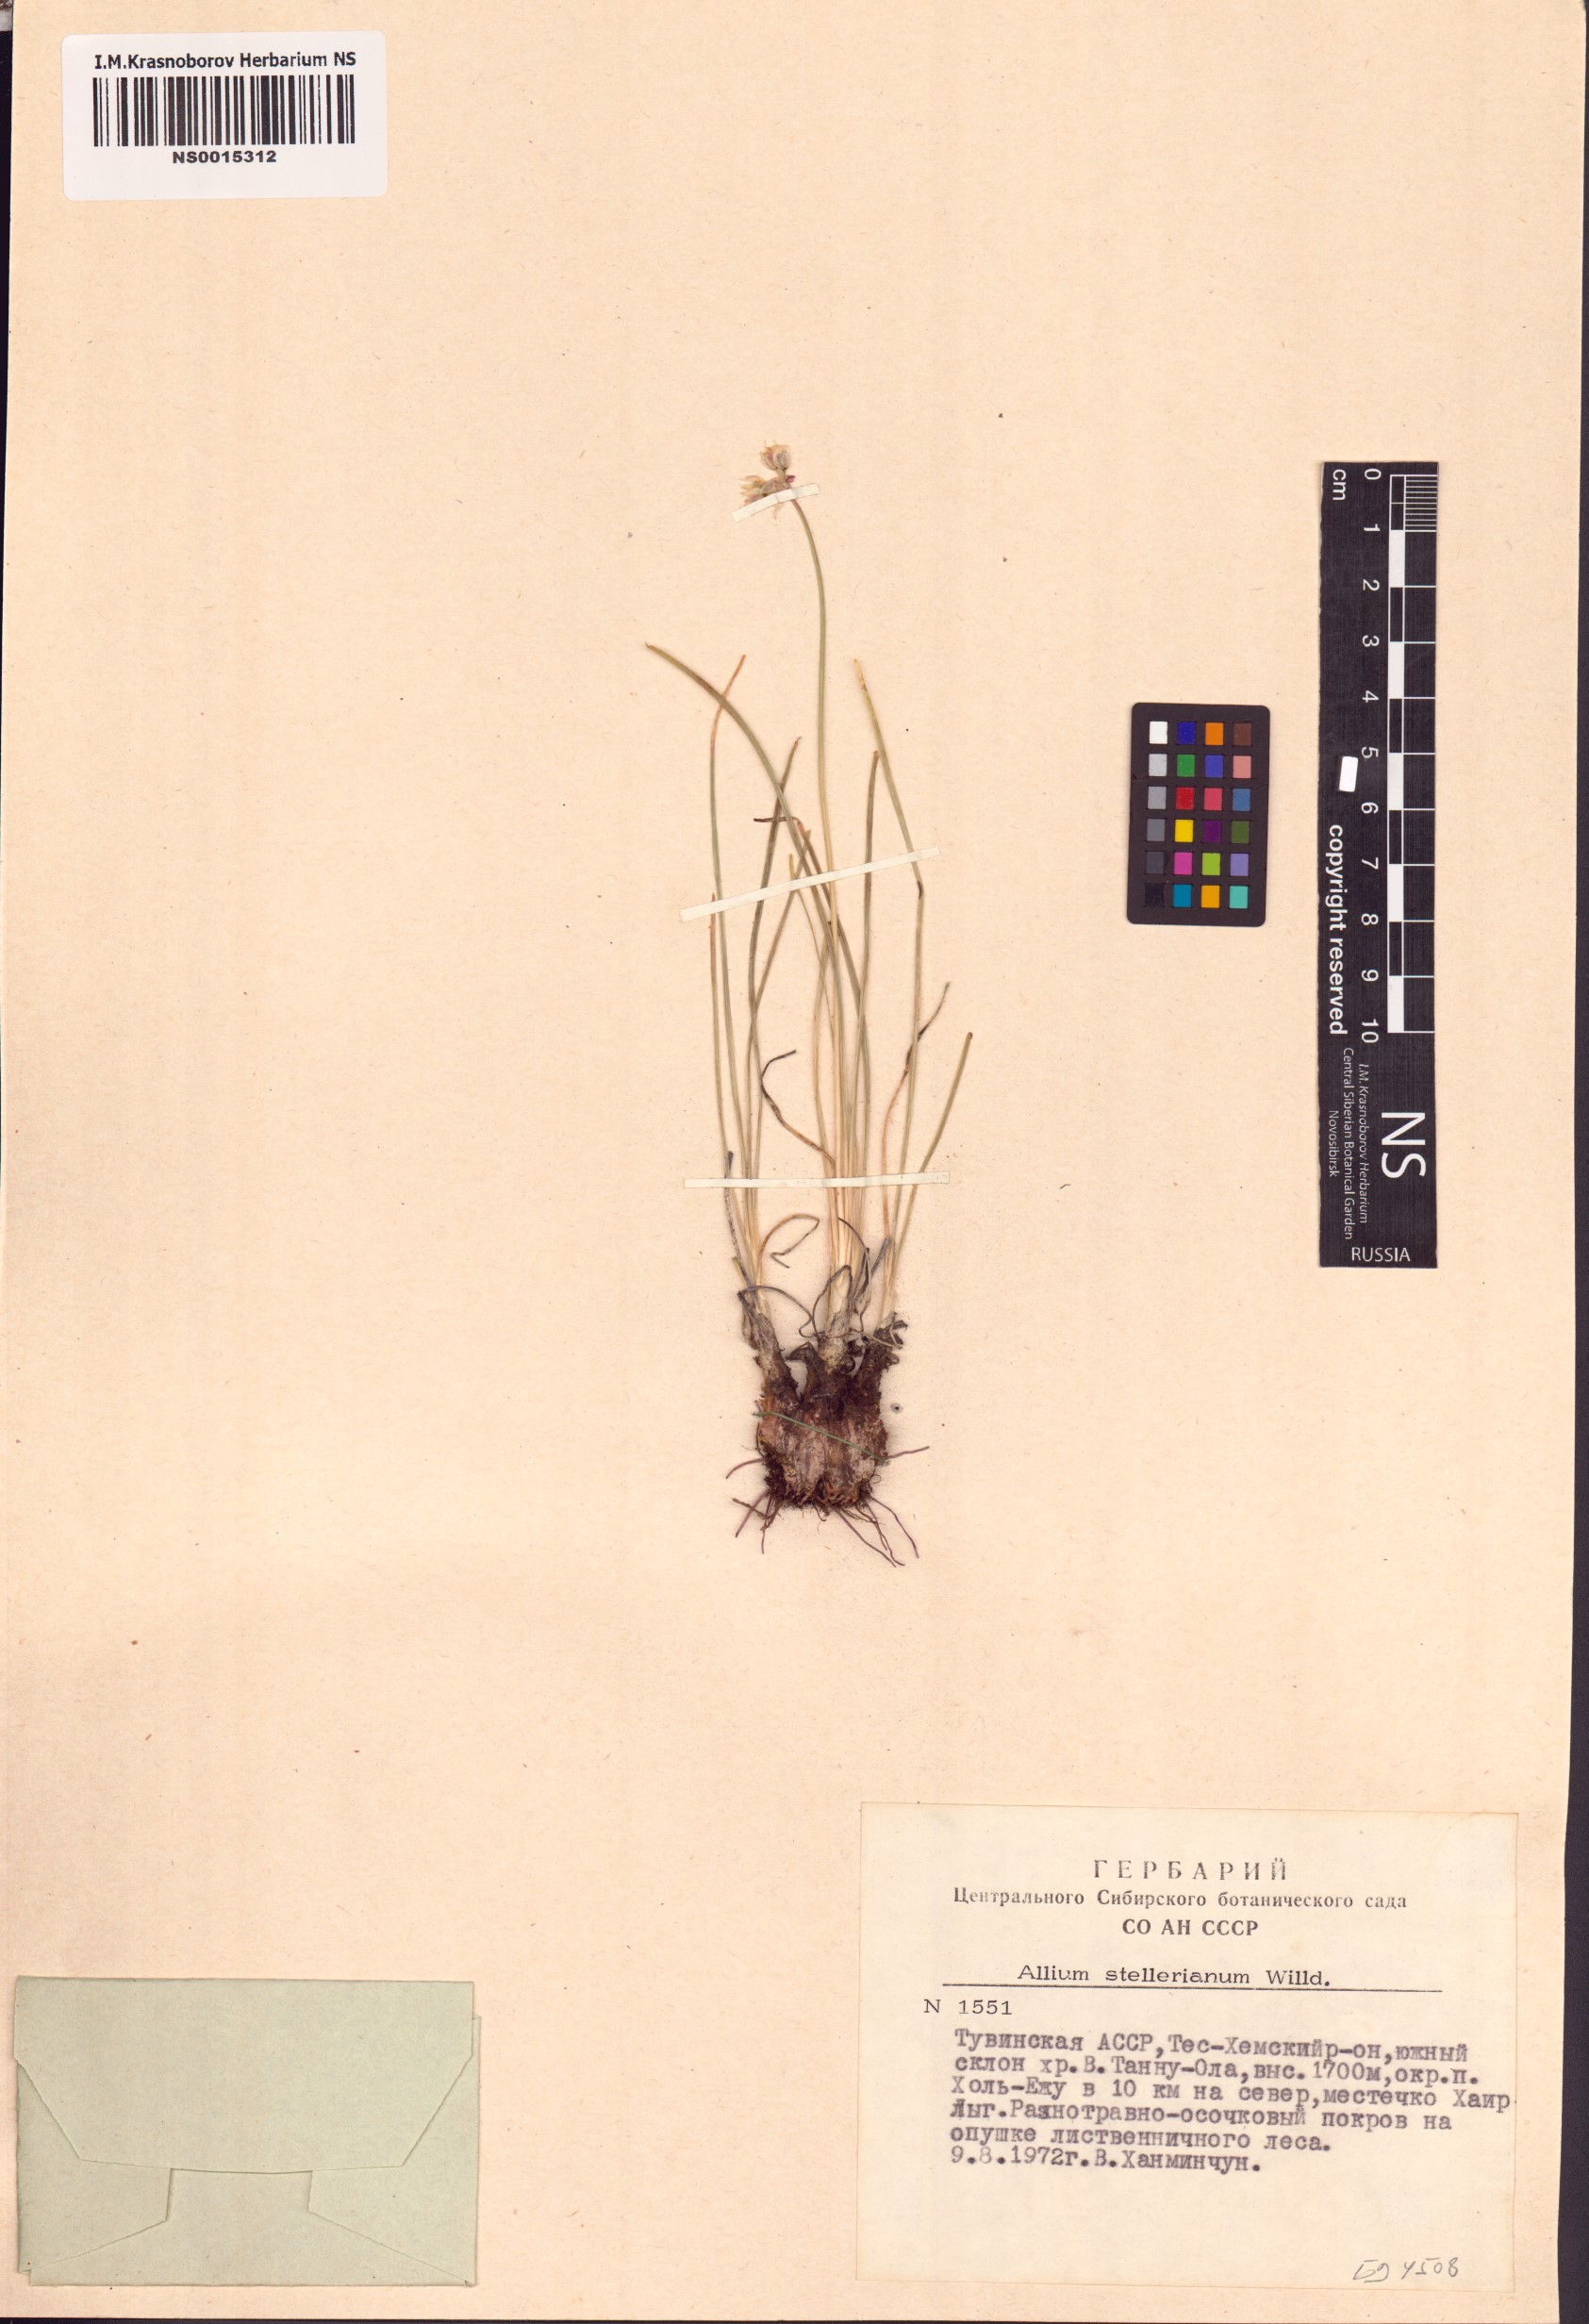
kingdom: Plantae
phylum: Tracheophyta
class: Liliopsida
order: Asparagales
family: Amaryllidaceae
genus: Allium
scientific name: Allium stellerianum
